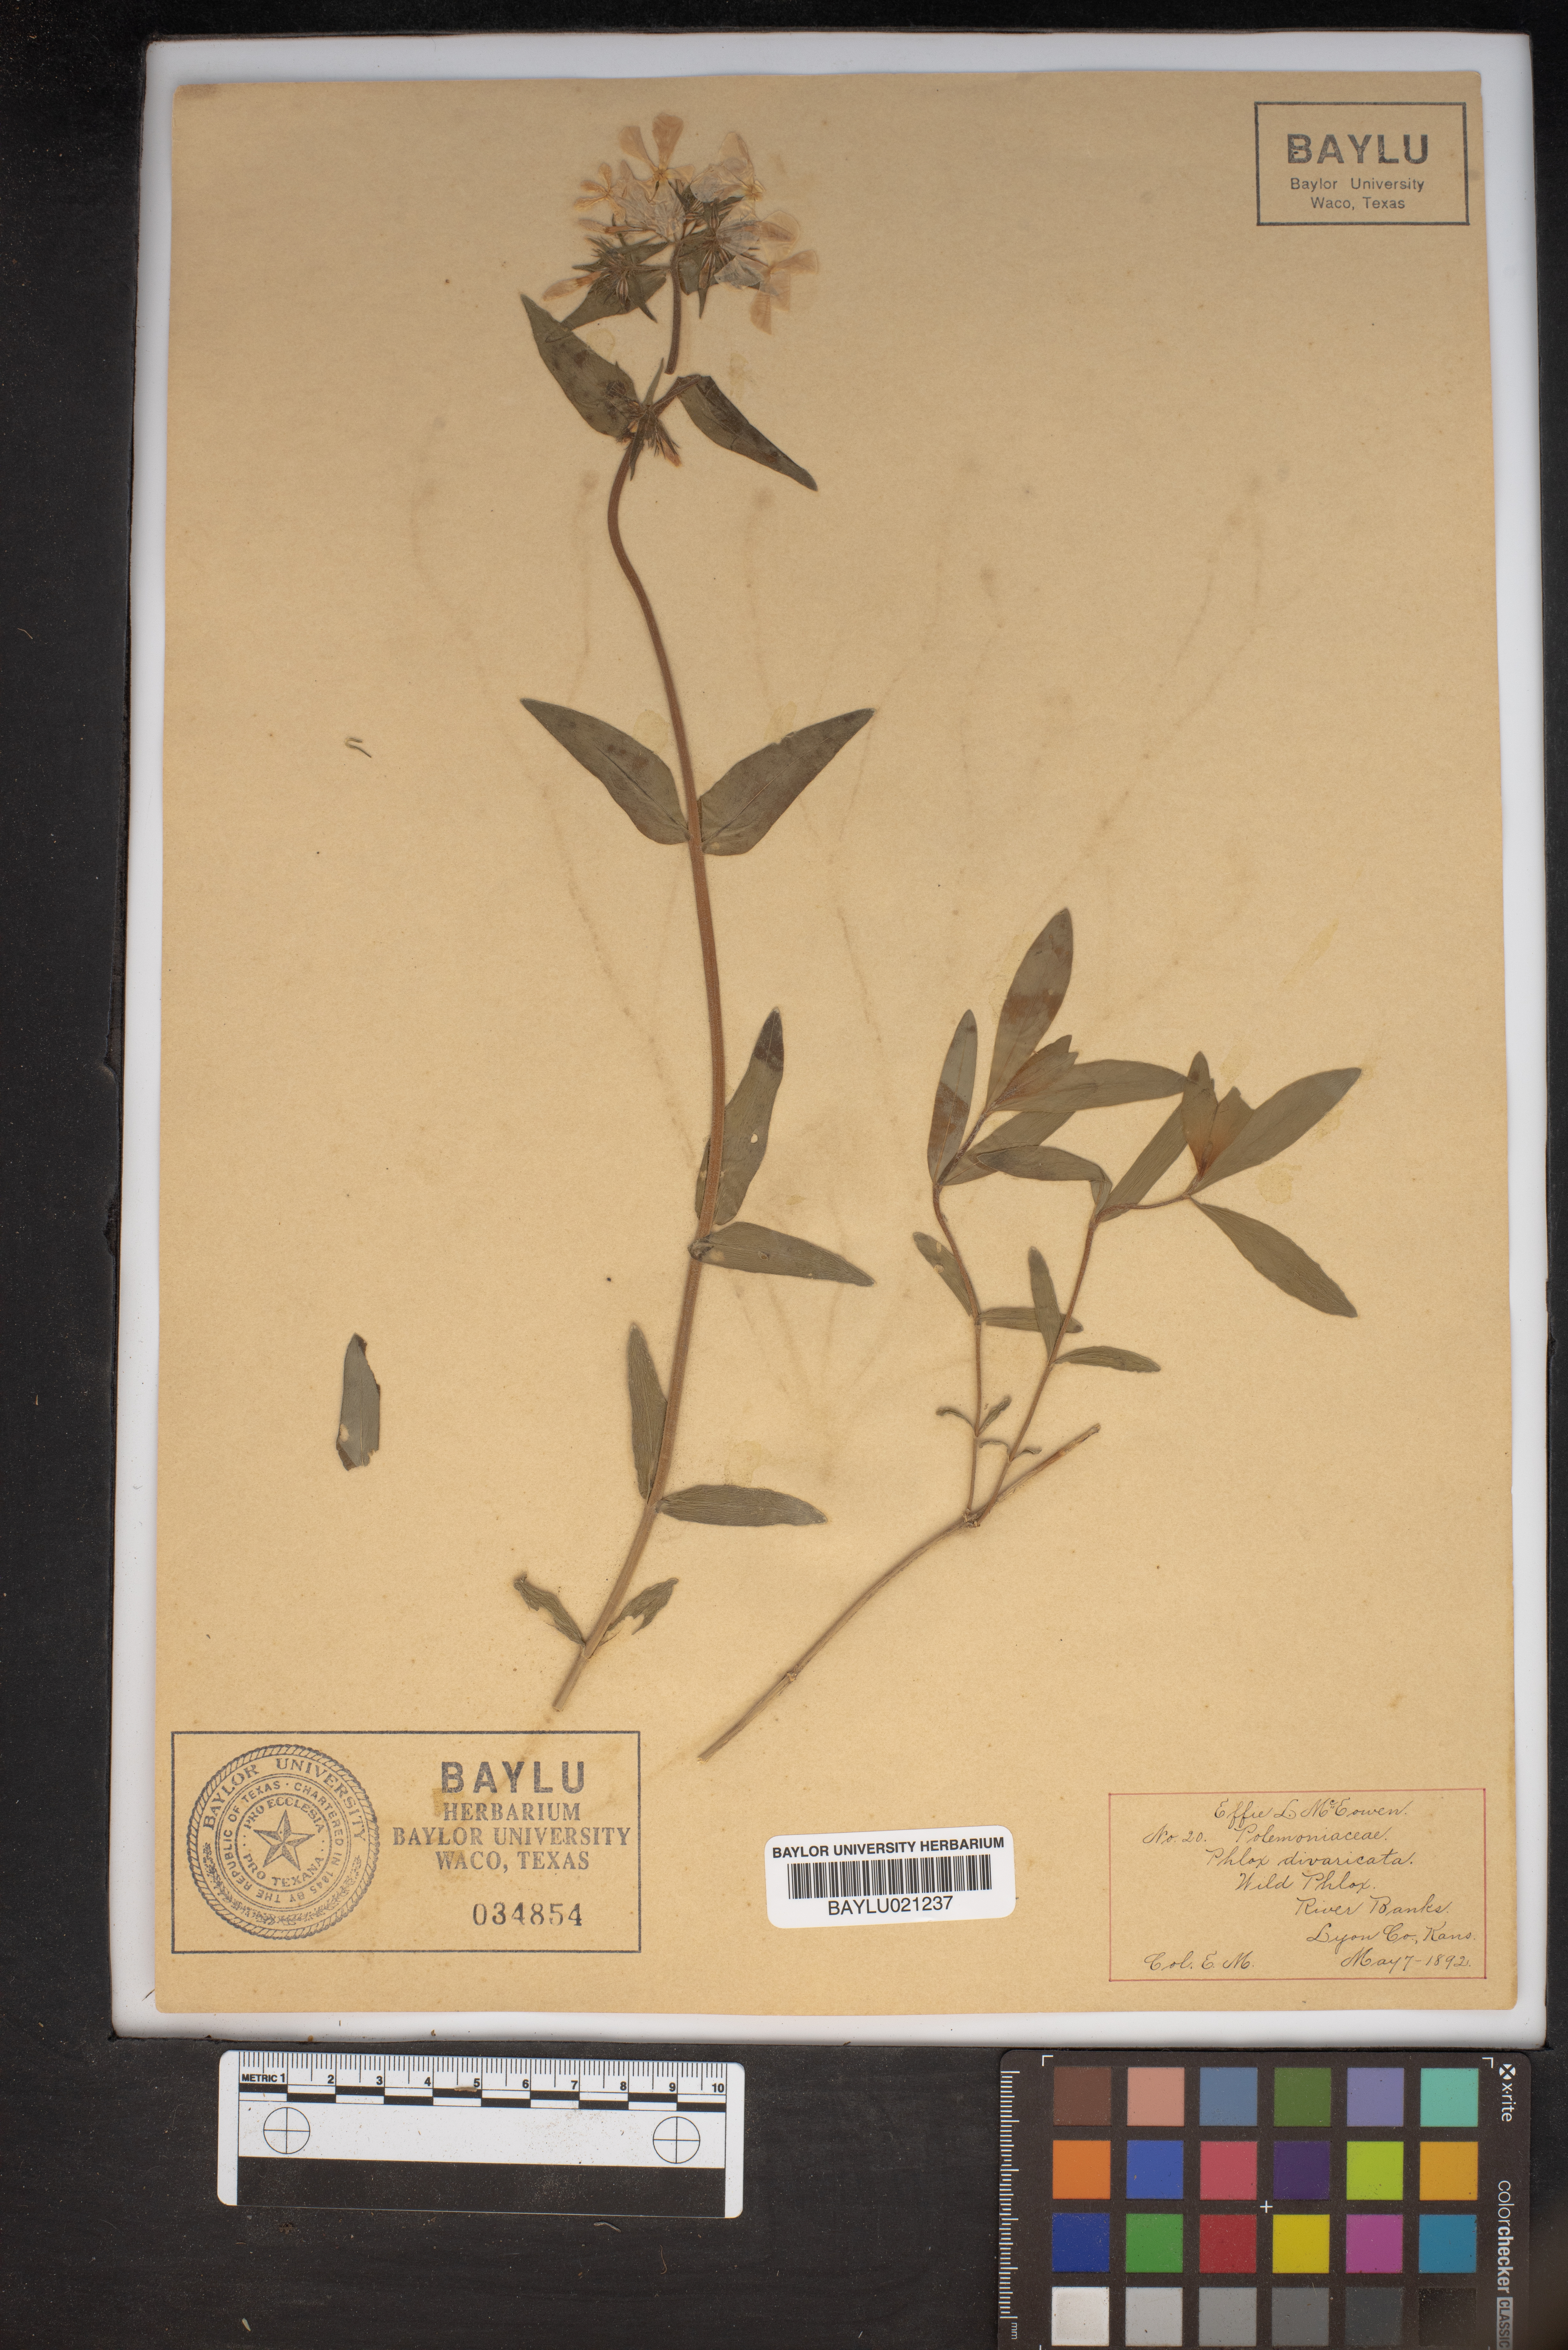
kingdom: Plantae
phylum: Tracheophyta
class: Magnoliopsida
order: Ericales
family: Polemoniaceae
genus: Phlox
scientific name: Phlox divaricata
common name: Blue phlox
